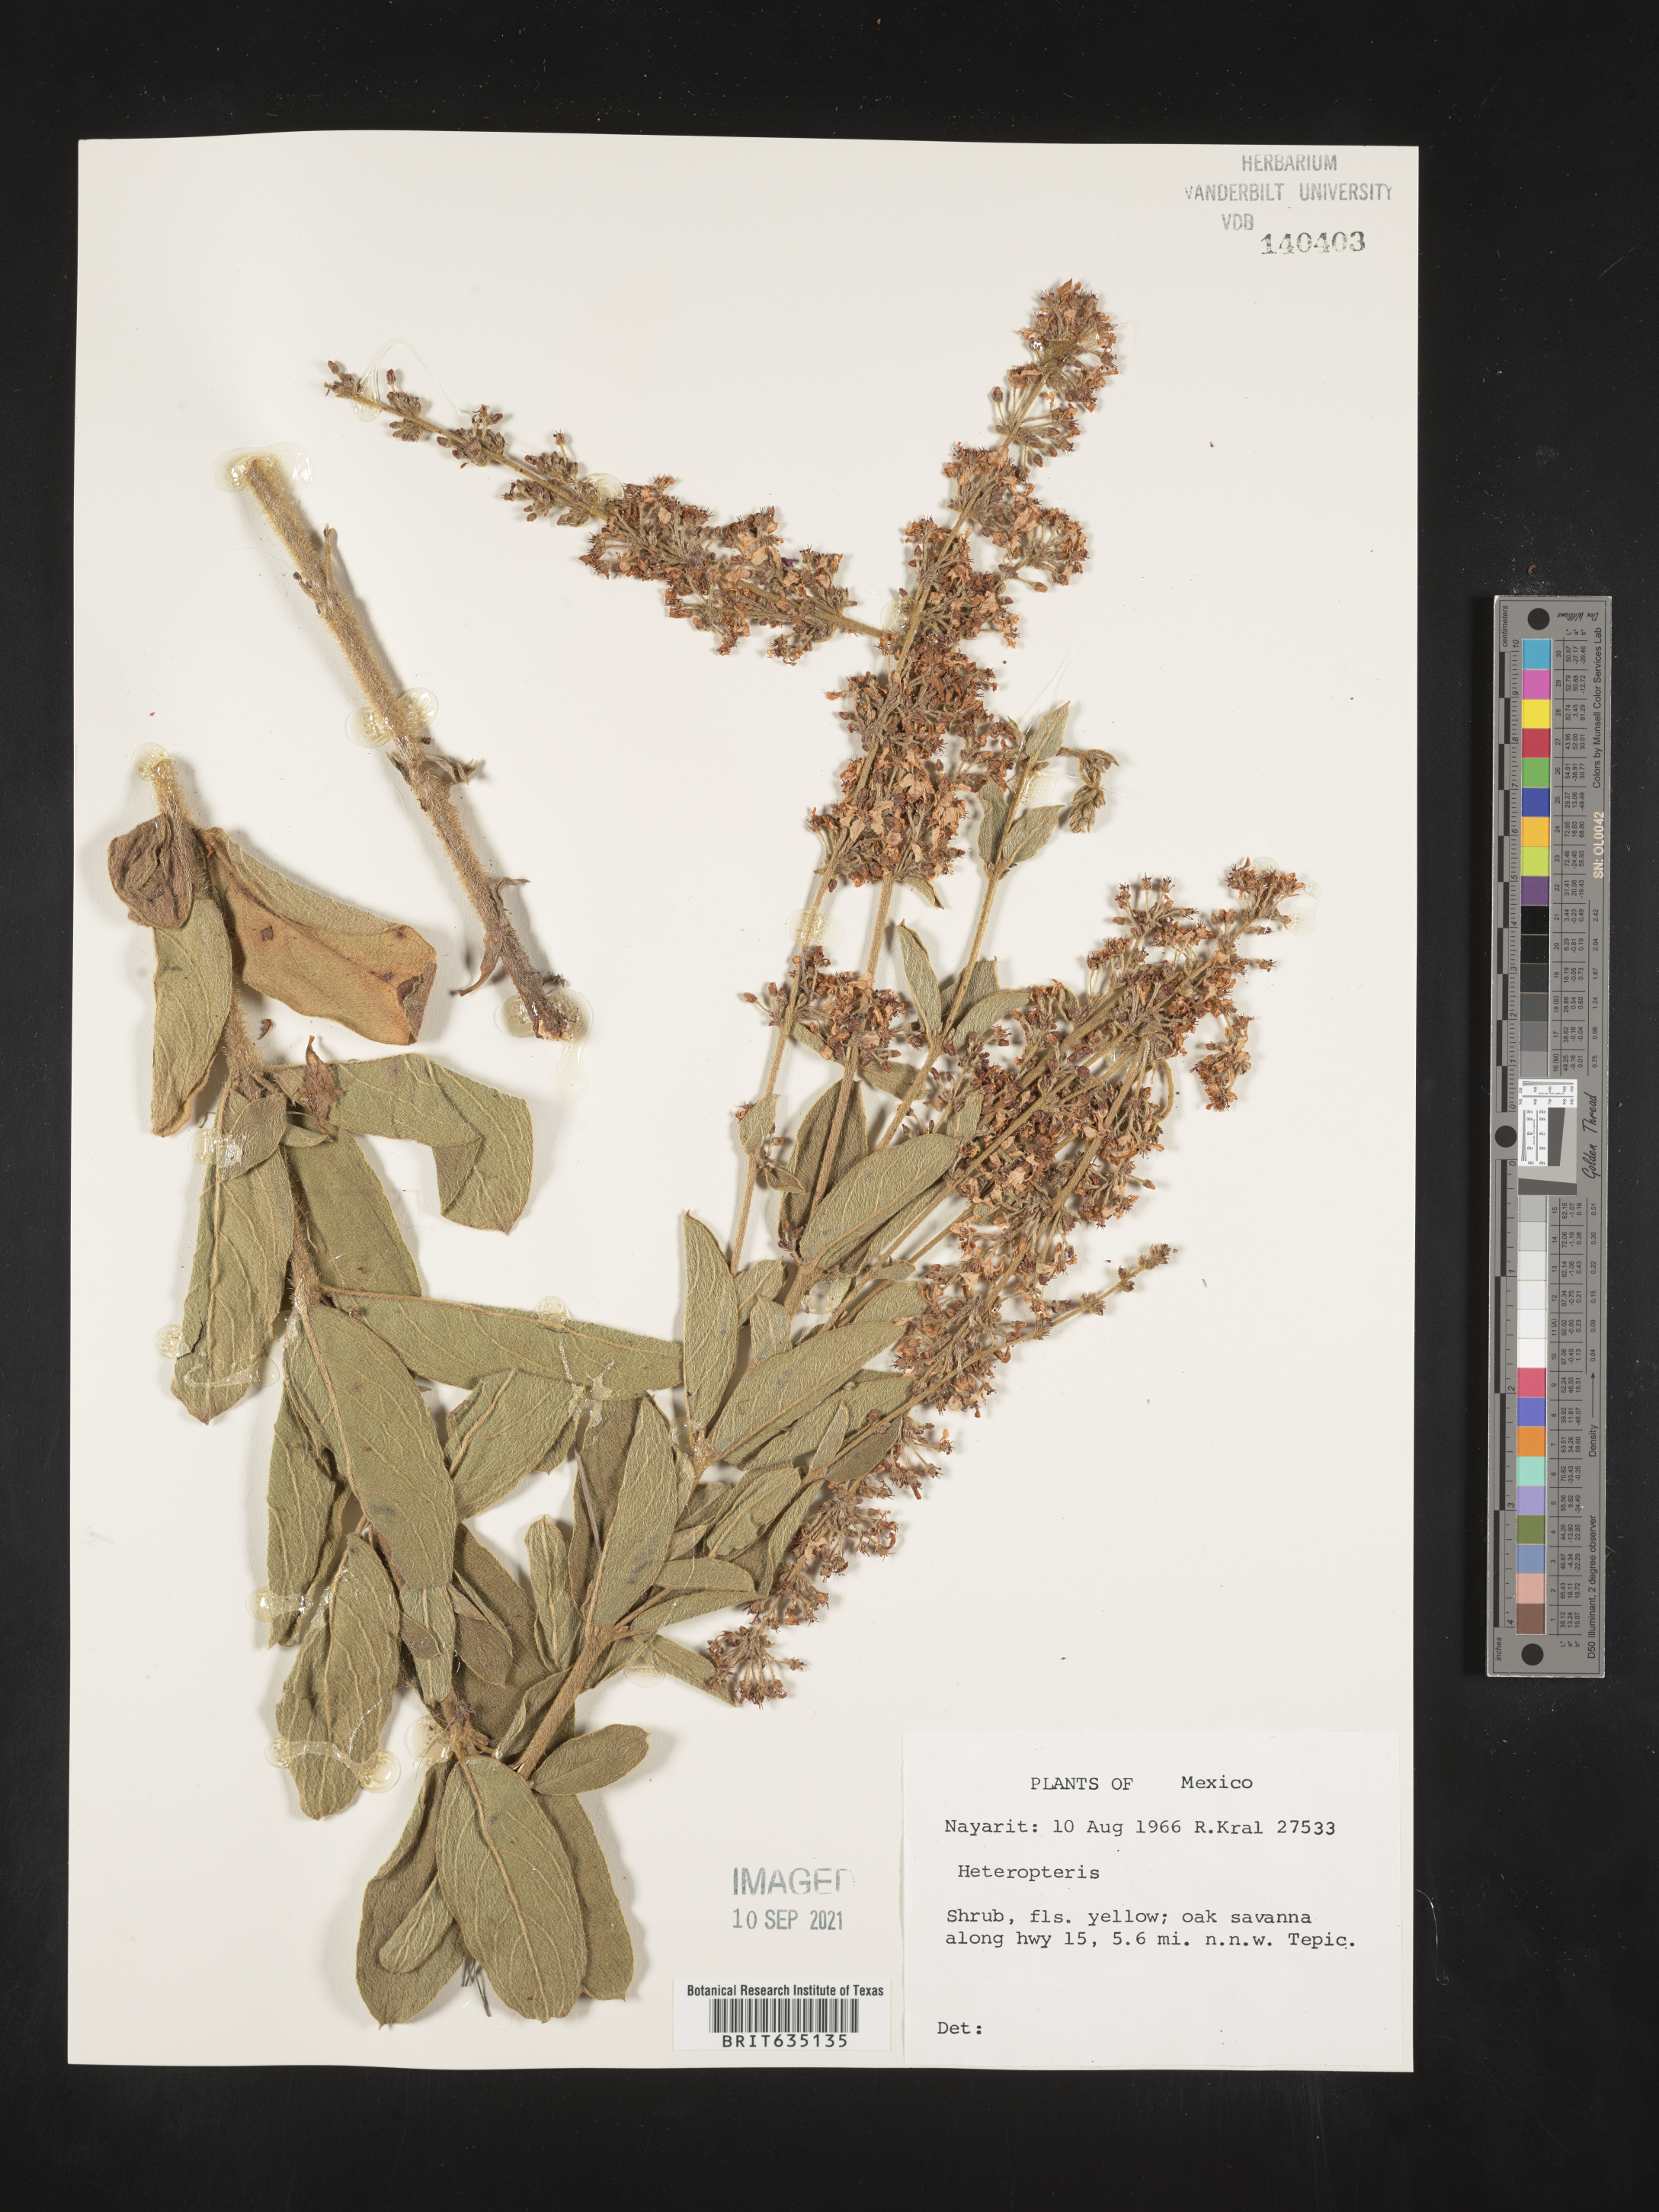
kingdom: Plantae
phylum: Tracheophyta
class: Polypodiopsida
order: Polypodiales
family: Pteridaceae
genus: Heteropteris
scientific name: Heteropteris
